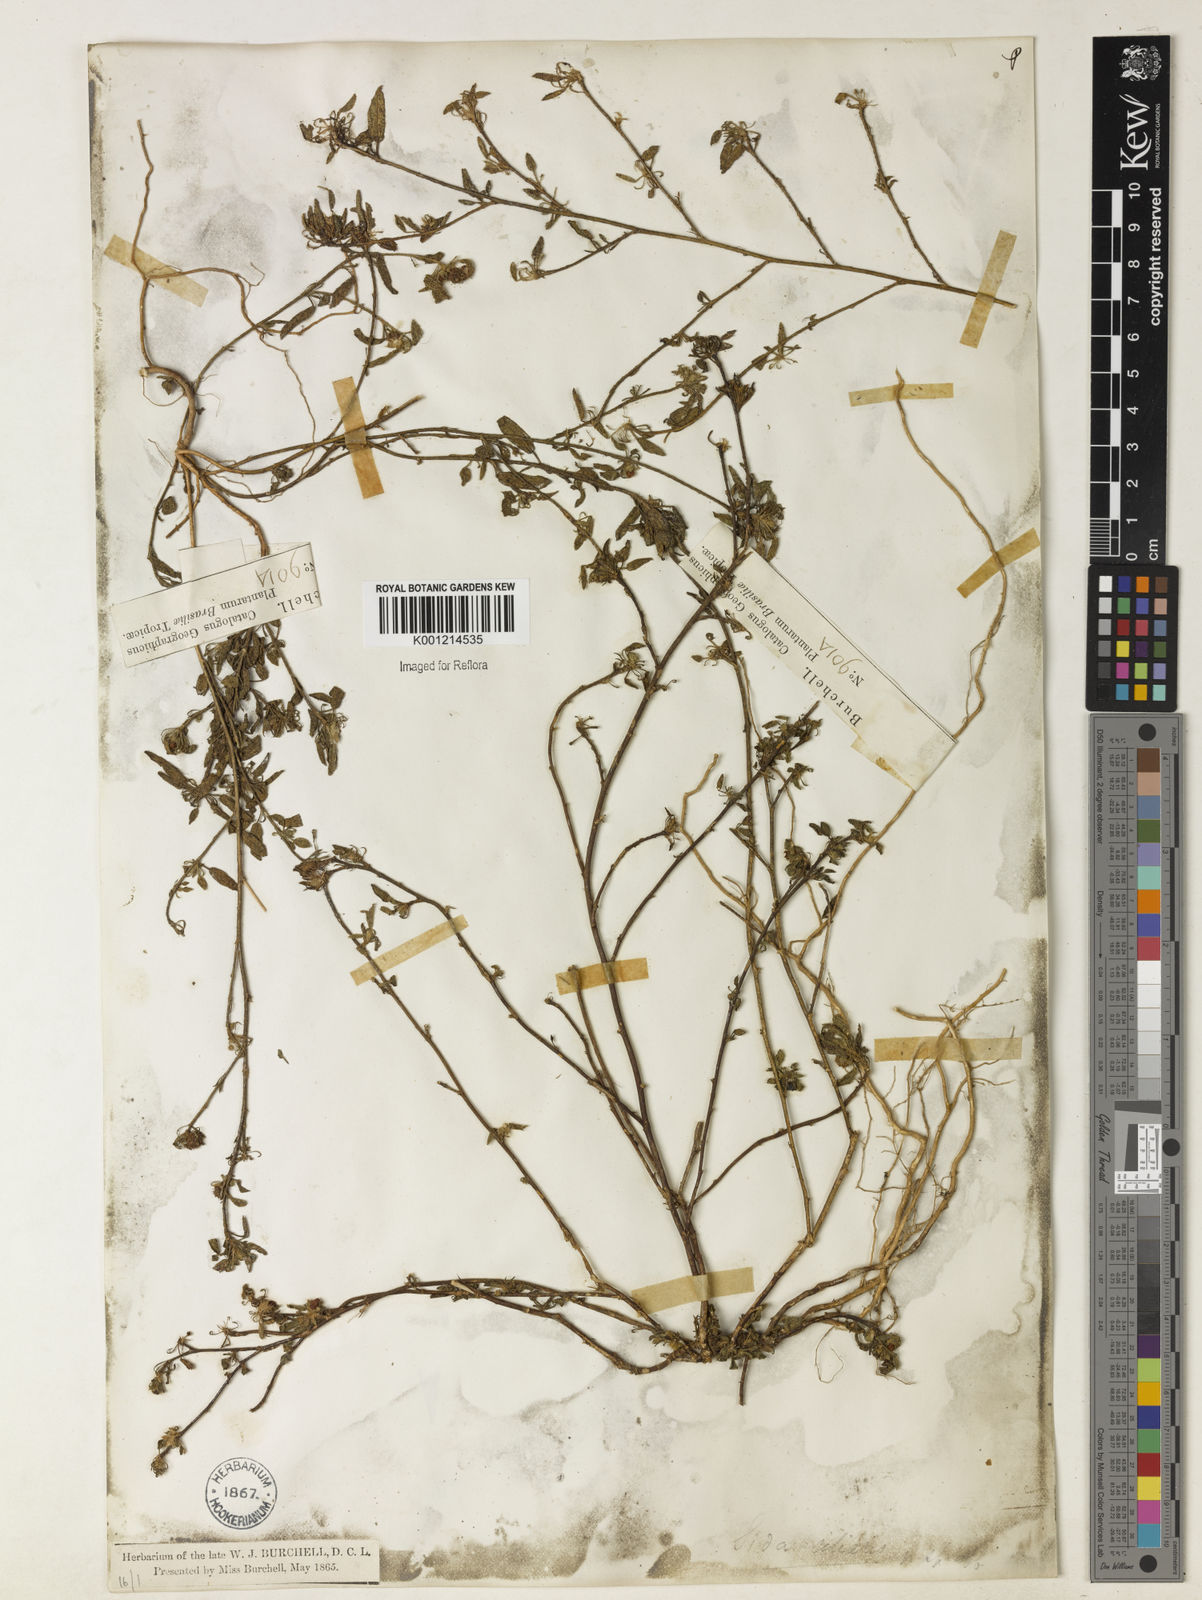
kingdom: Plantae
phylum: Tracheophyta
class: Magnoliopsida
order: Malvales
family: Malvaceae
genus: Sida
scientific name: Sida ciliaris
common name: Bracted fanpetals
